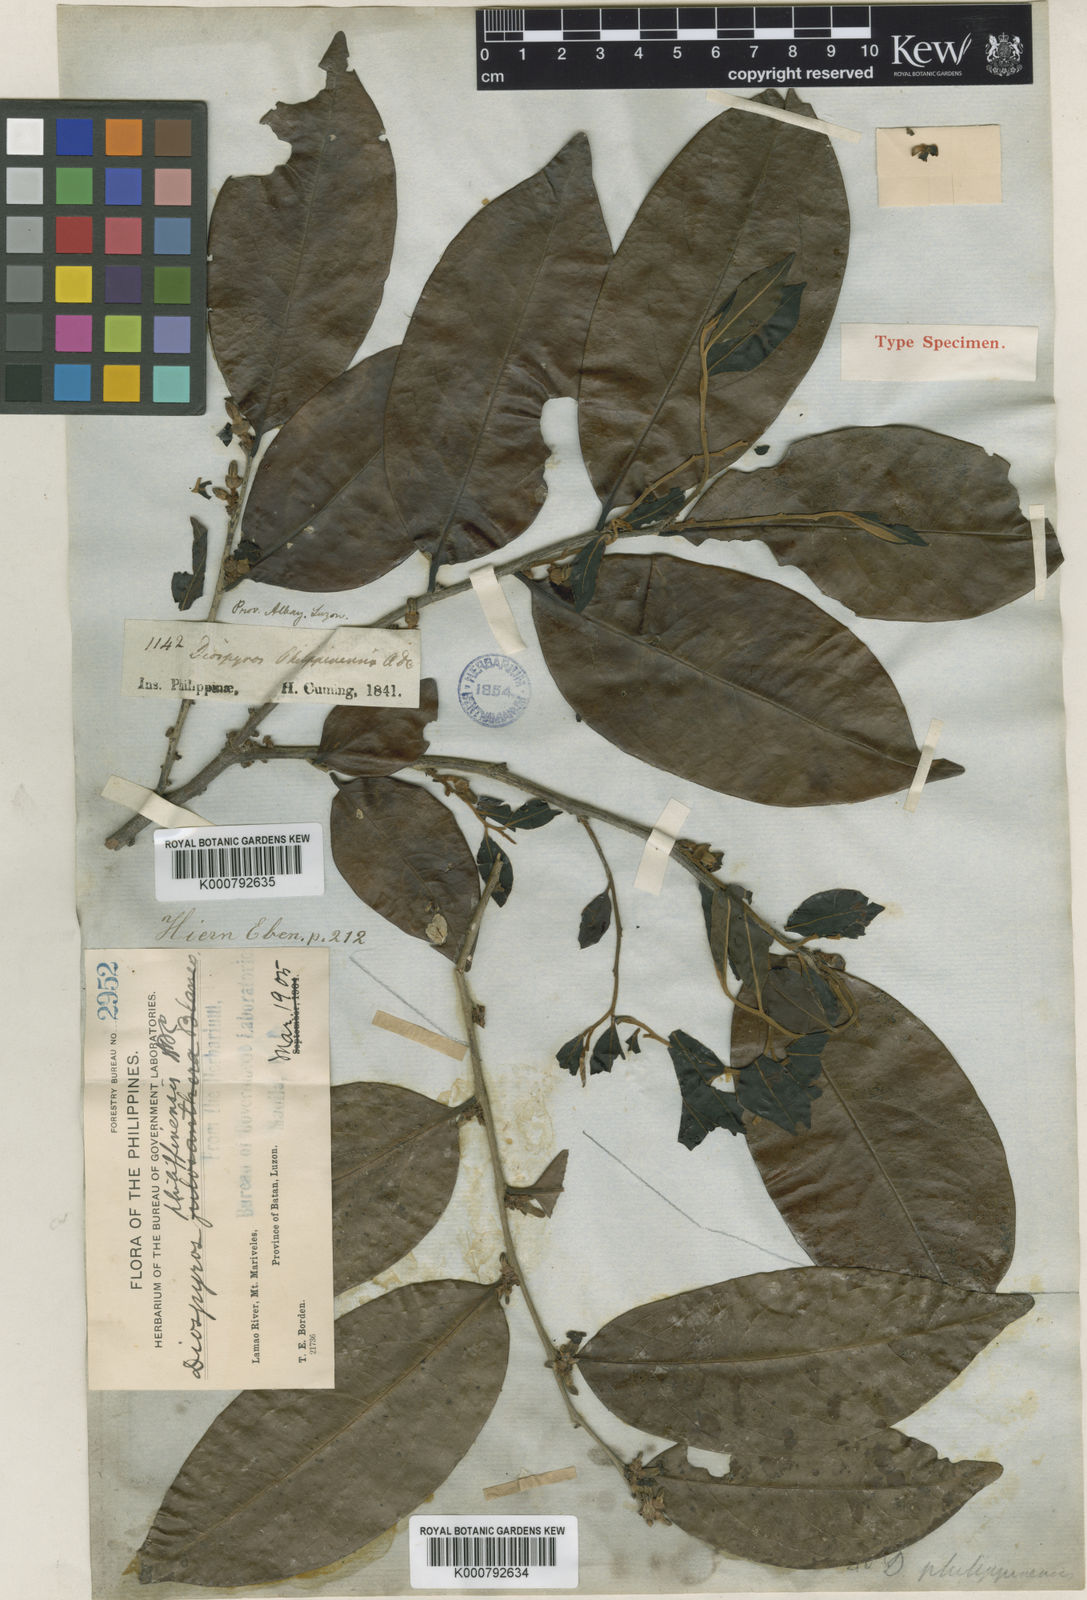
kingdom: Plantae
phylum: Tracheophyta
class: Magnoliopsida
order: Ericales
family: Ebenaceae
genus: Diospyros
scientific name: Diospyros philippinensis
